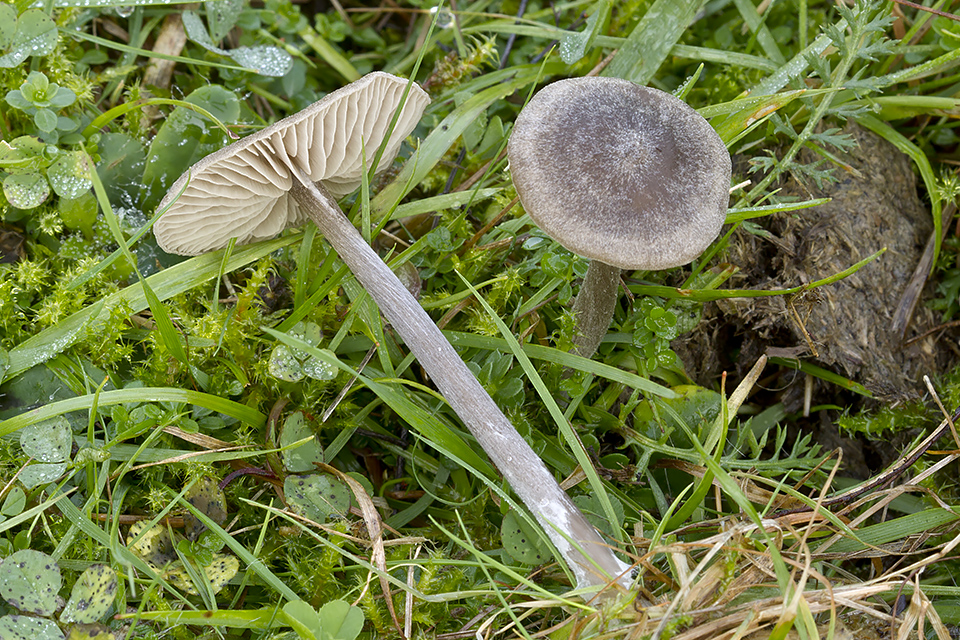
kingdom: Fungi
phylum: Basidiomycota
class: Agaricomycetes
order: Agaricales
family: Entolomataceae
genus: Entoloma
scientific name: Entoloma cuneatum
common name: dunstokket rødblad
